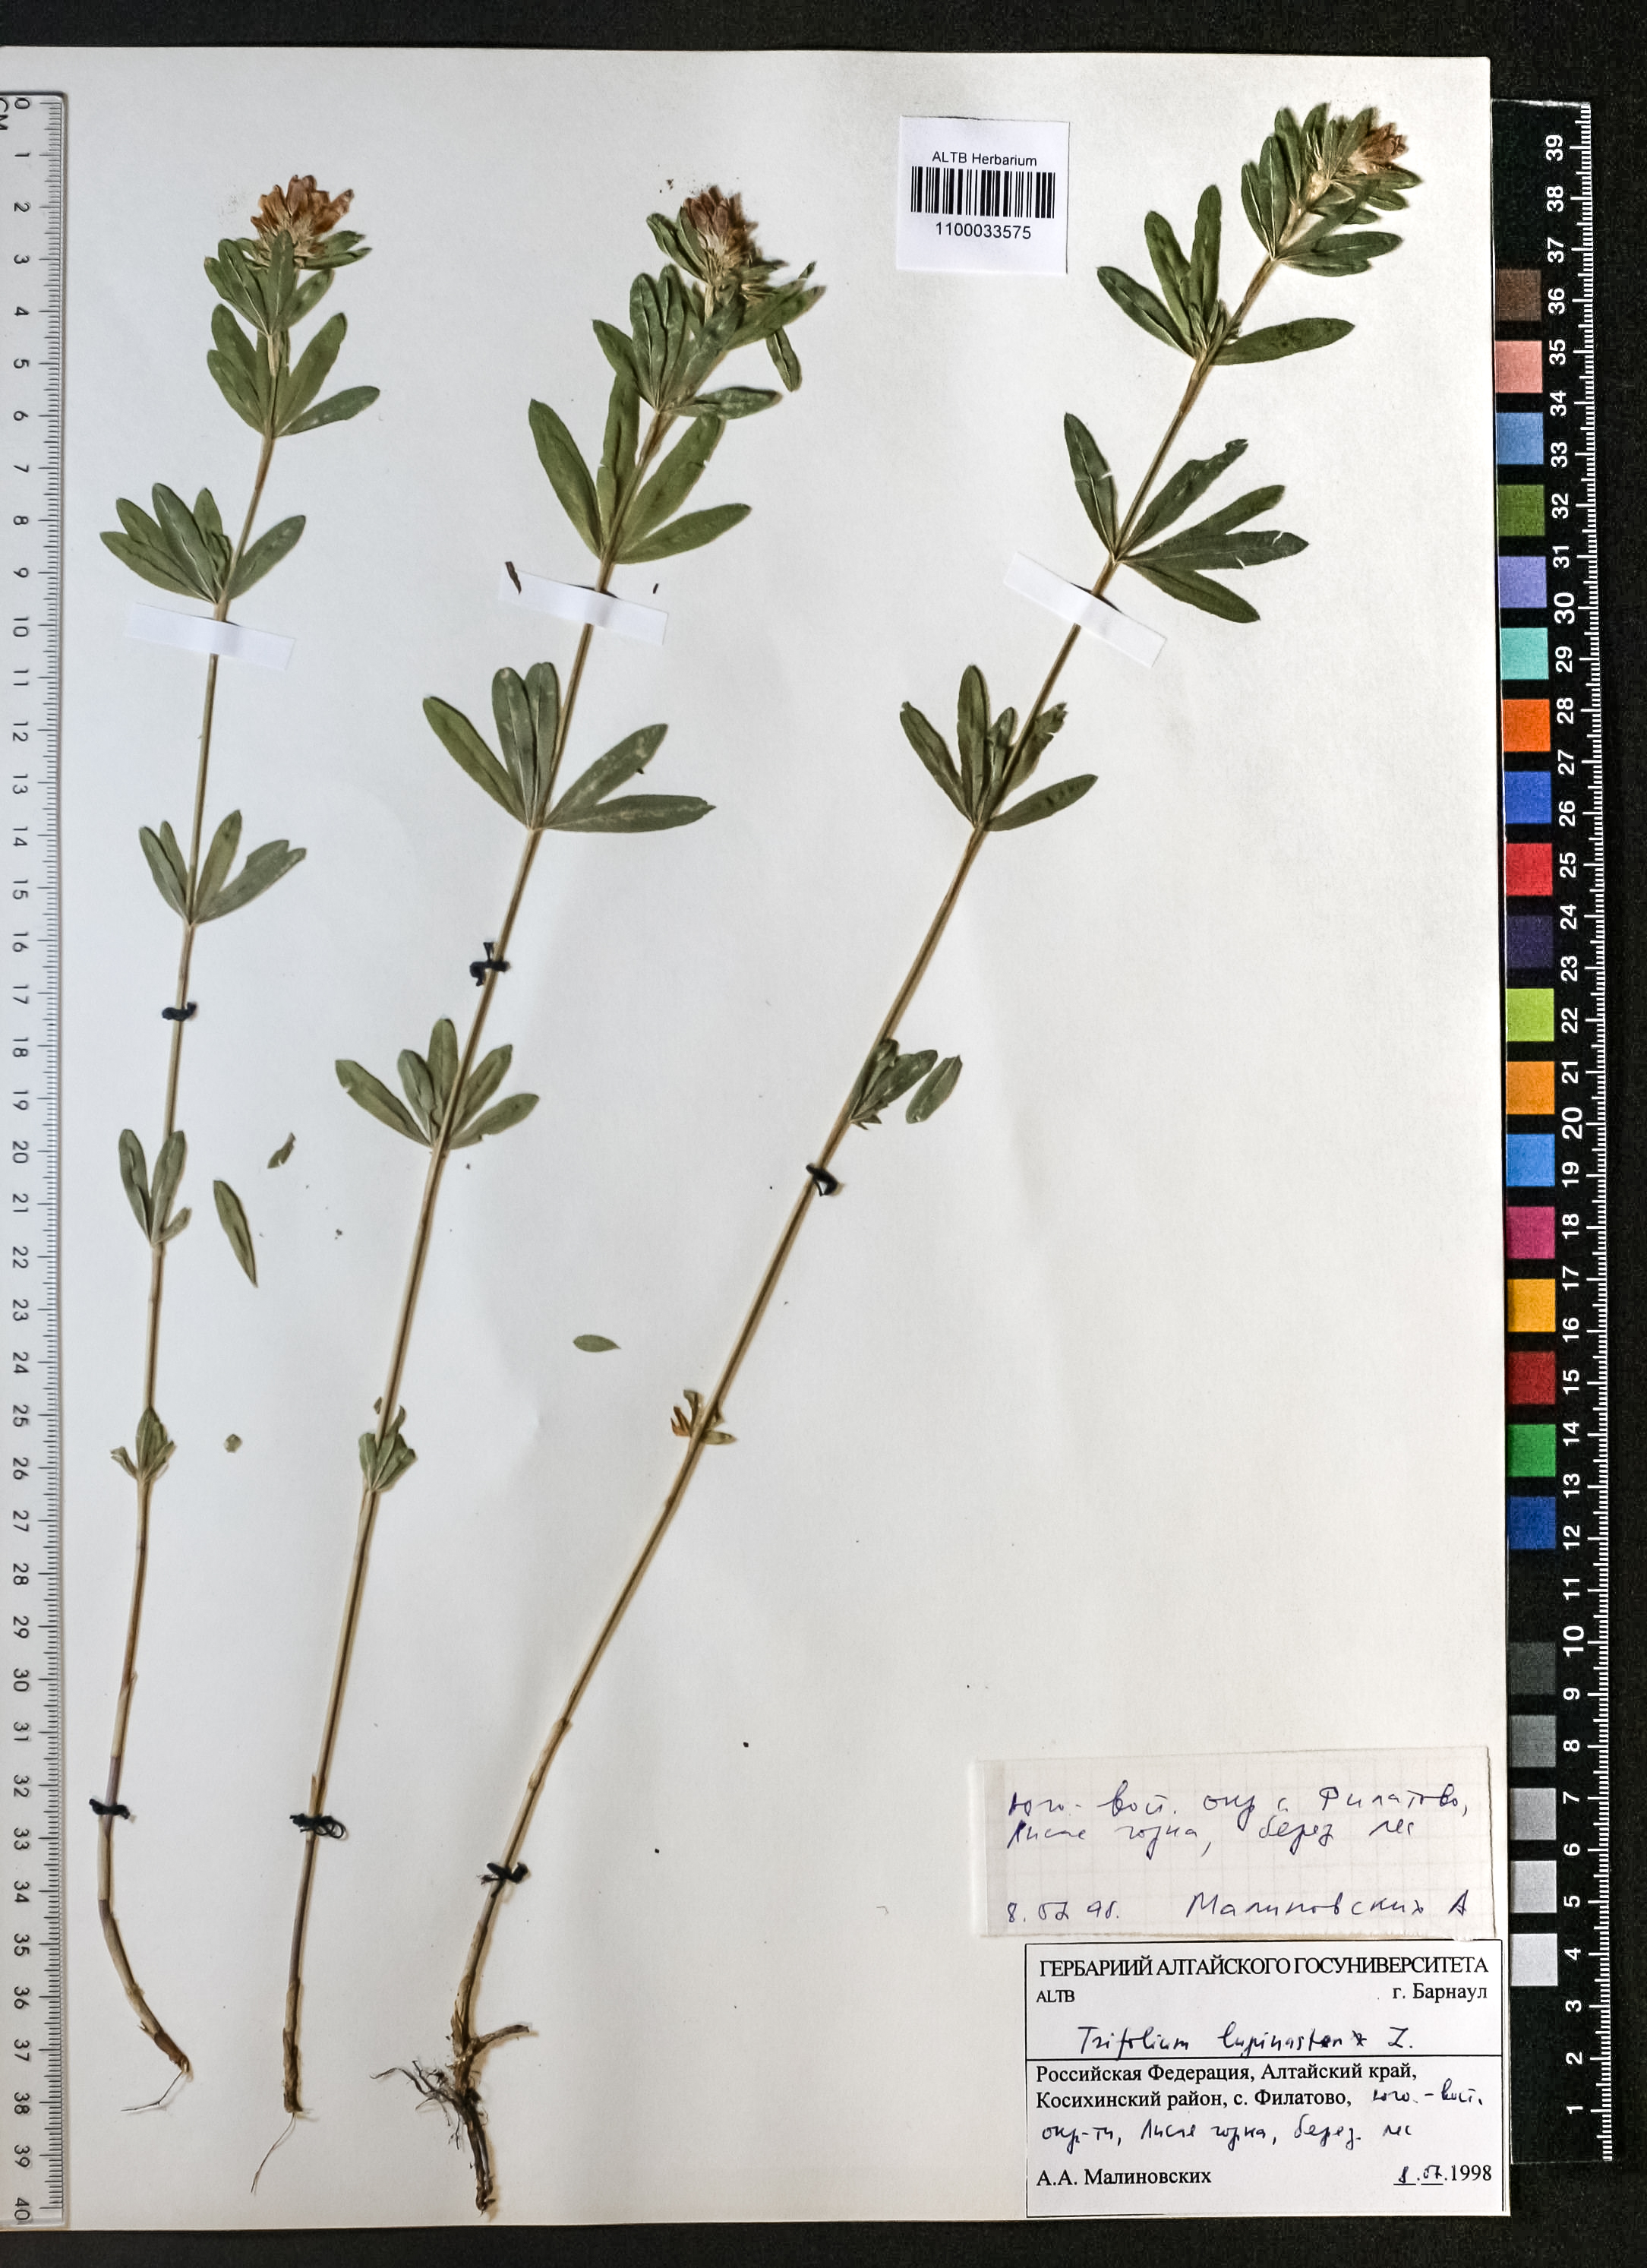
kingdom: Plantae
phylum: Tracheophyta
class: Magnoliopsida
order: Fabales
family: Fabaceae
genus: Trifolium
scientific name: Trifolium lupinaster
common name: Lupine clover
